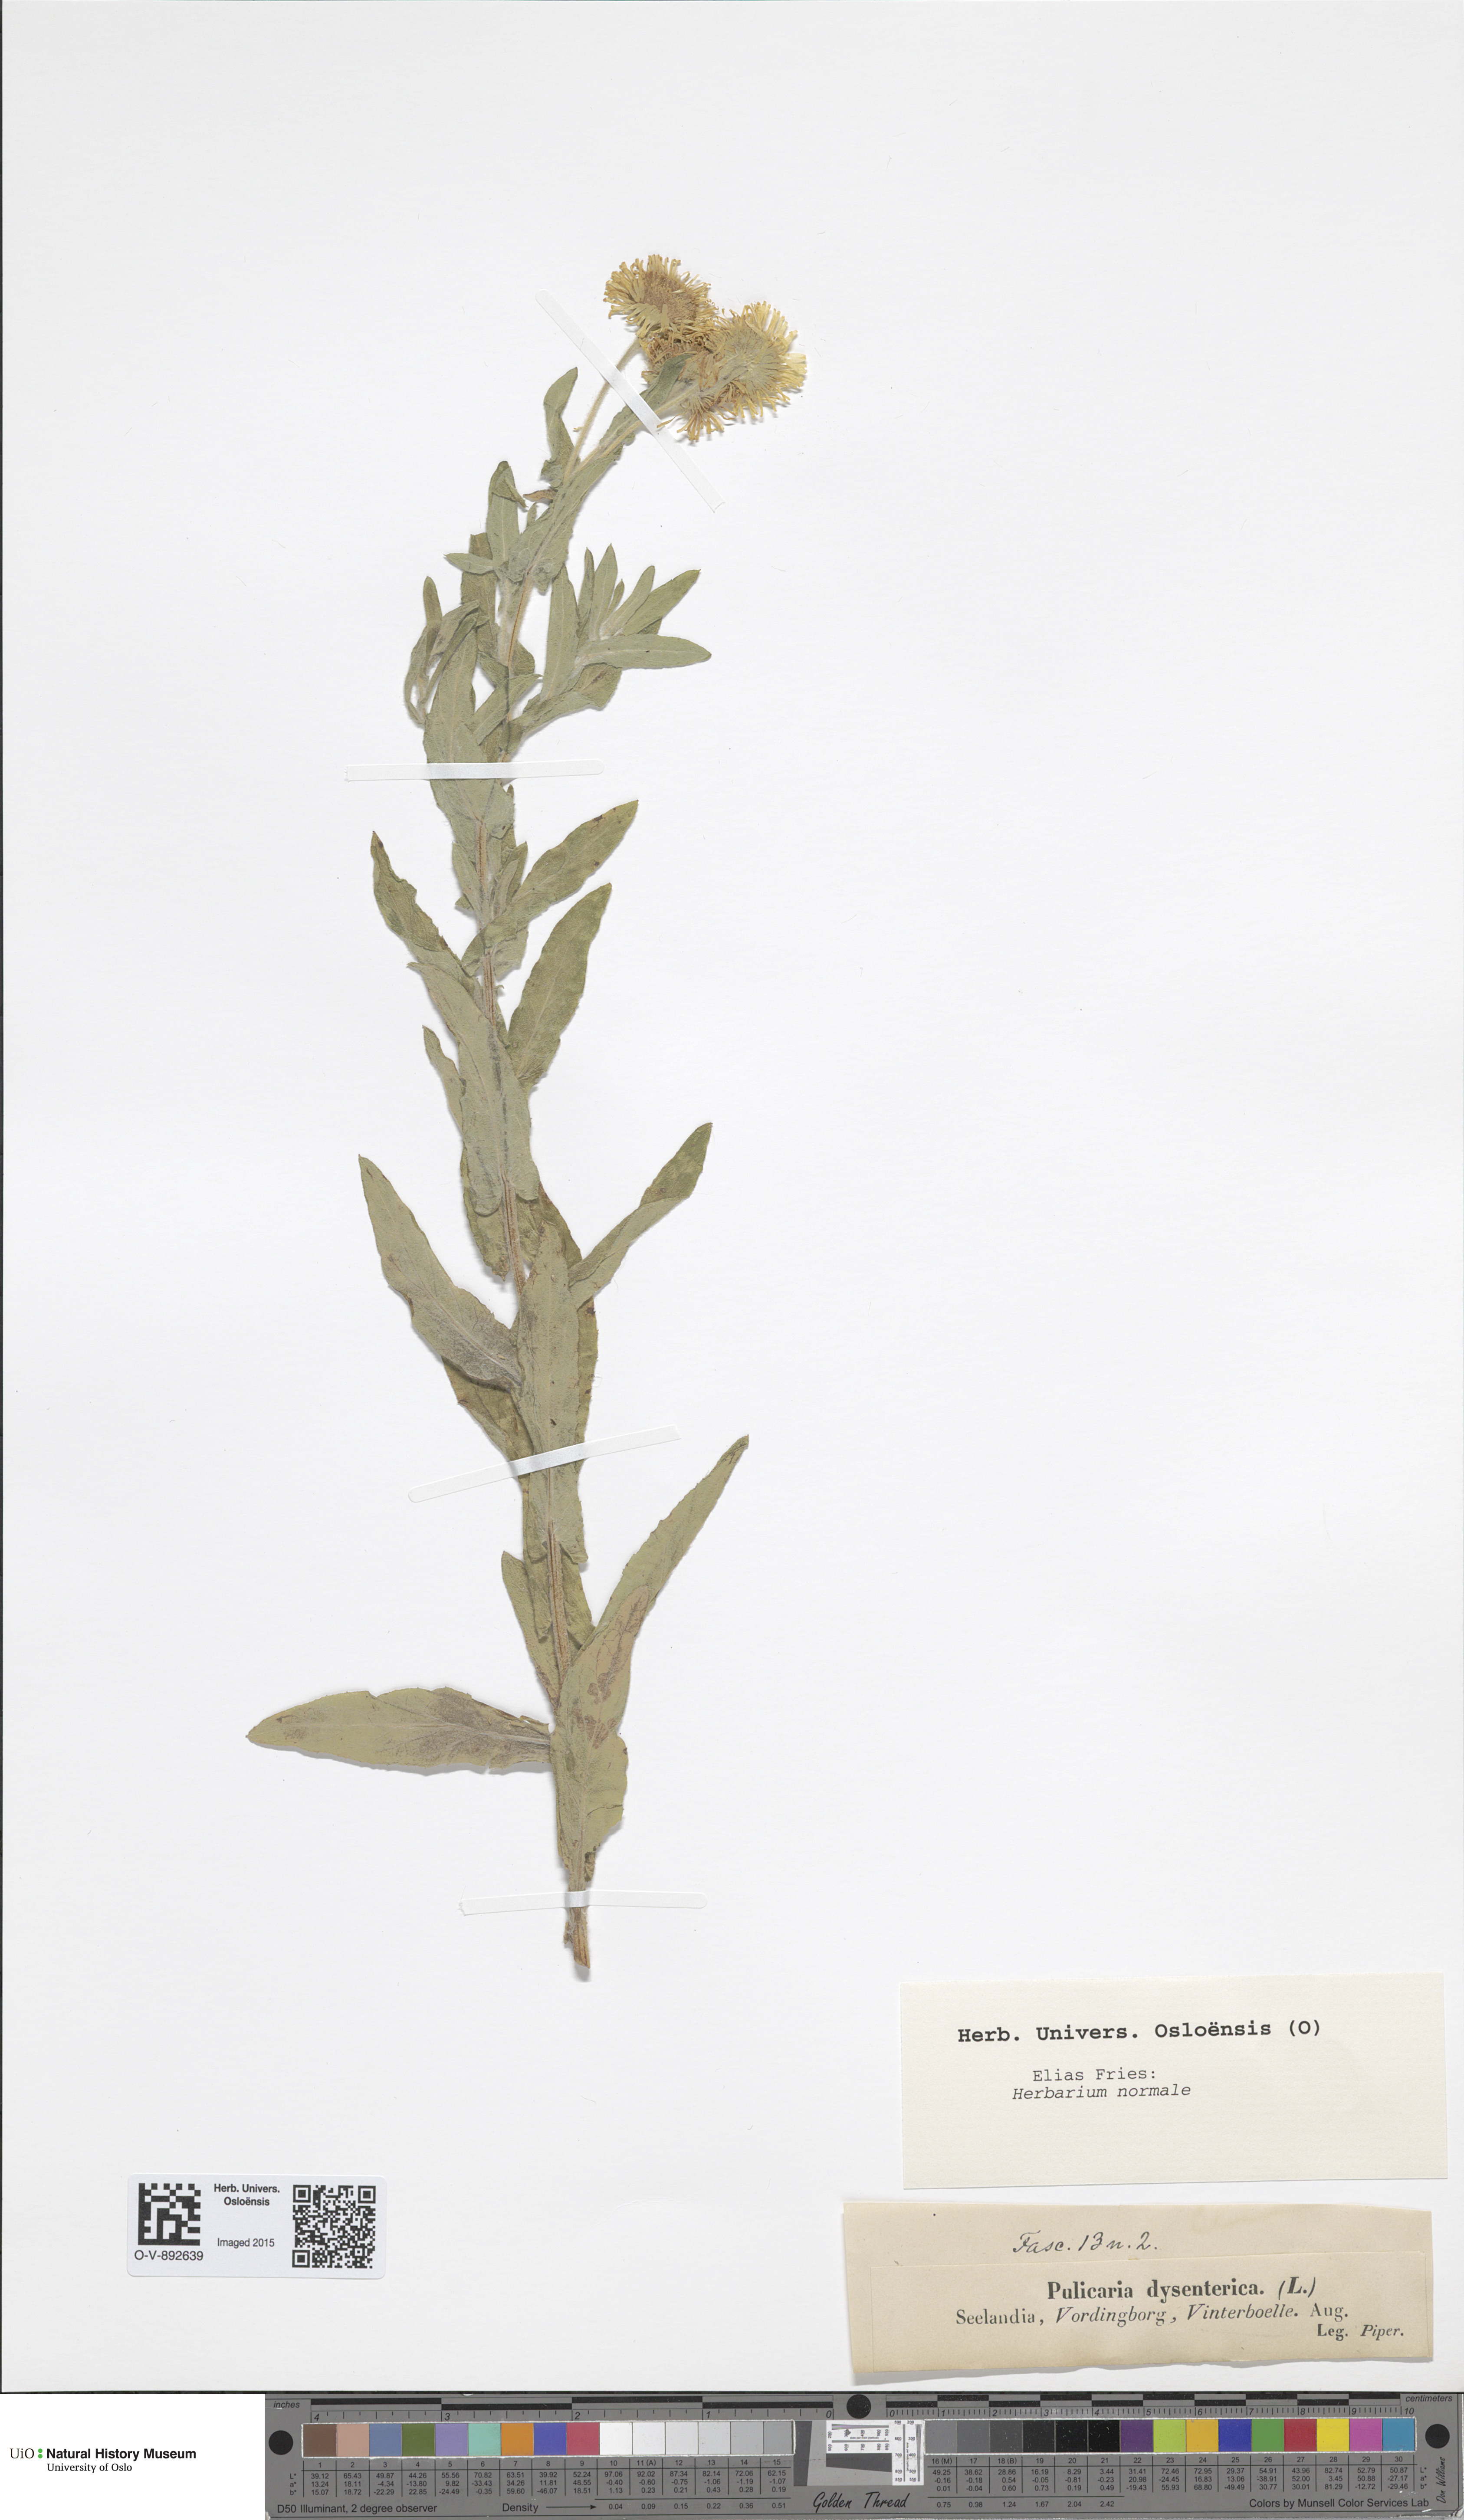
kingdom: Plantae
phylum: Tracheophyta
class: Magnoliopsida
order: Asterales
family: Asteraceae
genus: Pulicaria
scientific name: Pulicaria dysenterica
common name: Common fleabane
